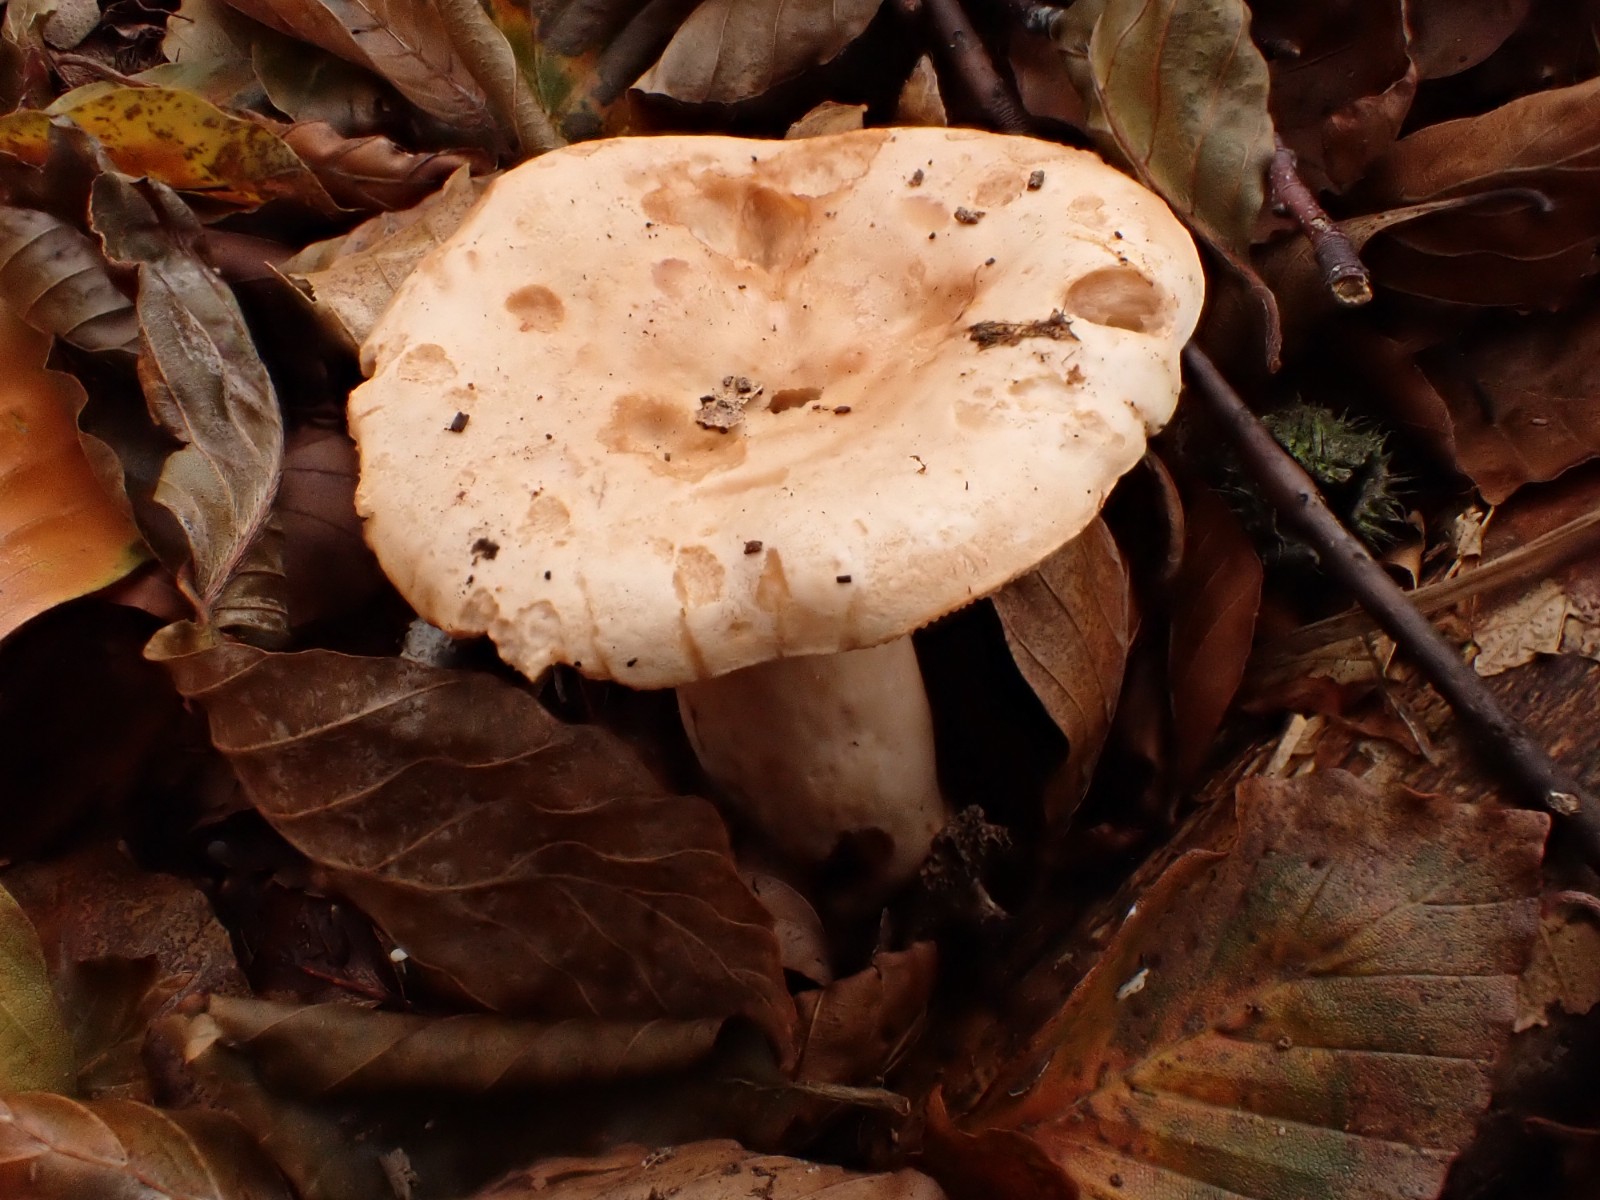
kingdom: Fungi
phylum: Basidiomycota
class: Agaricomycetes
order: Russulales
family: Russulaceae
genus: Lactarius
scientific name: Lactarius pallidus
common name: bleg mælkehat
